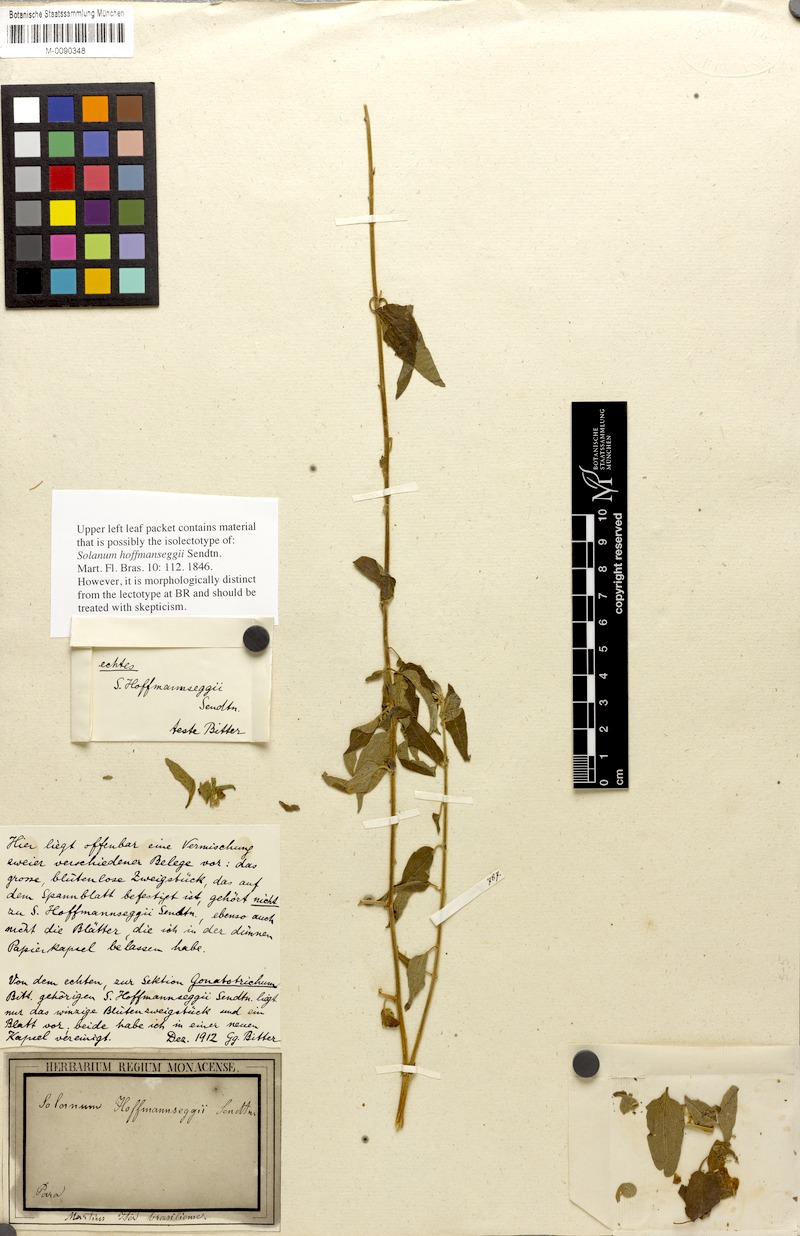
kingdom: Plantae
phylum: Tracheophyta
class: Magnoliopsida
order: Solanales
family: Solanaceae
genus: Solanum
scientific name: Solanum hoffmanseggii
